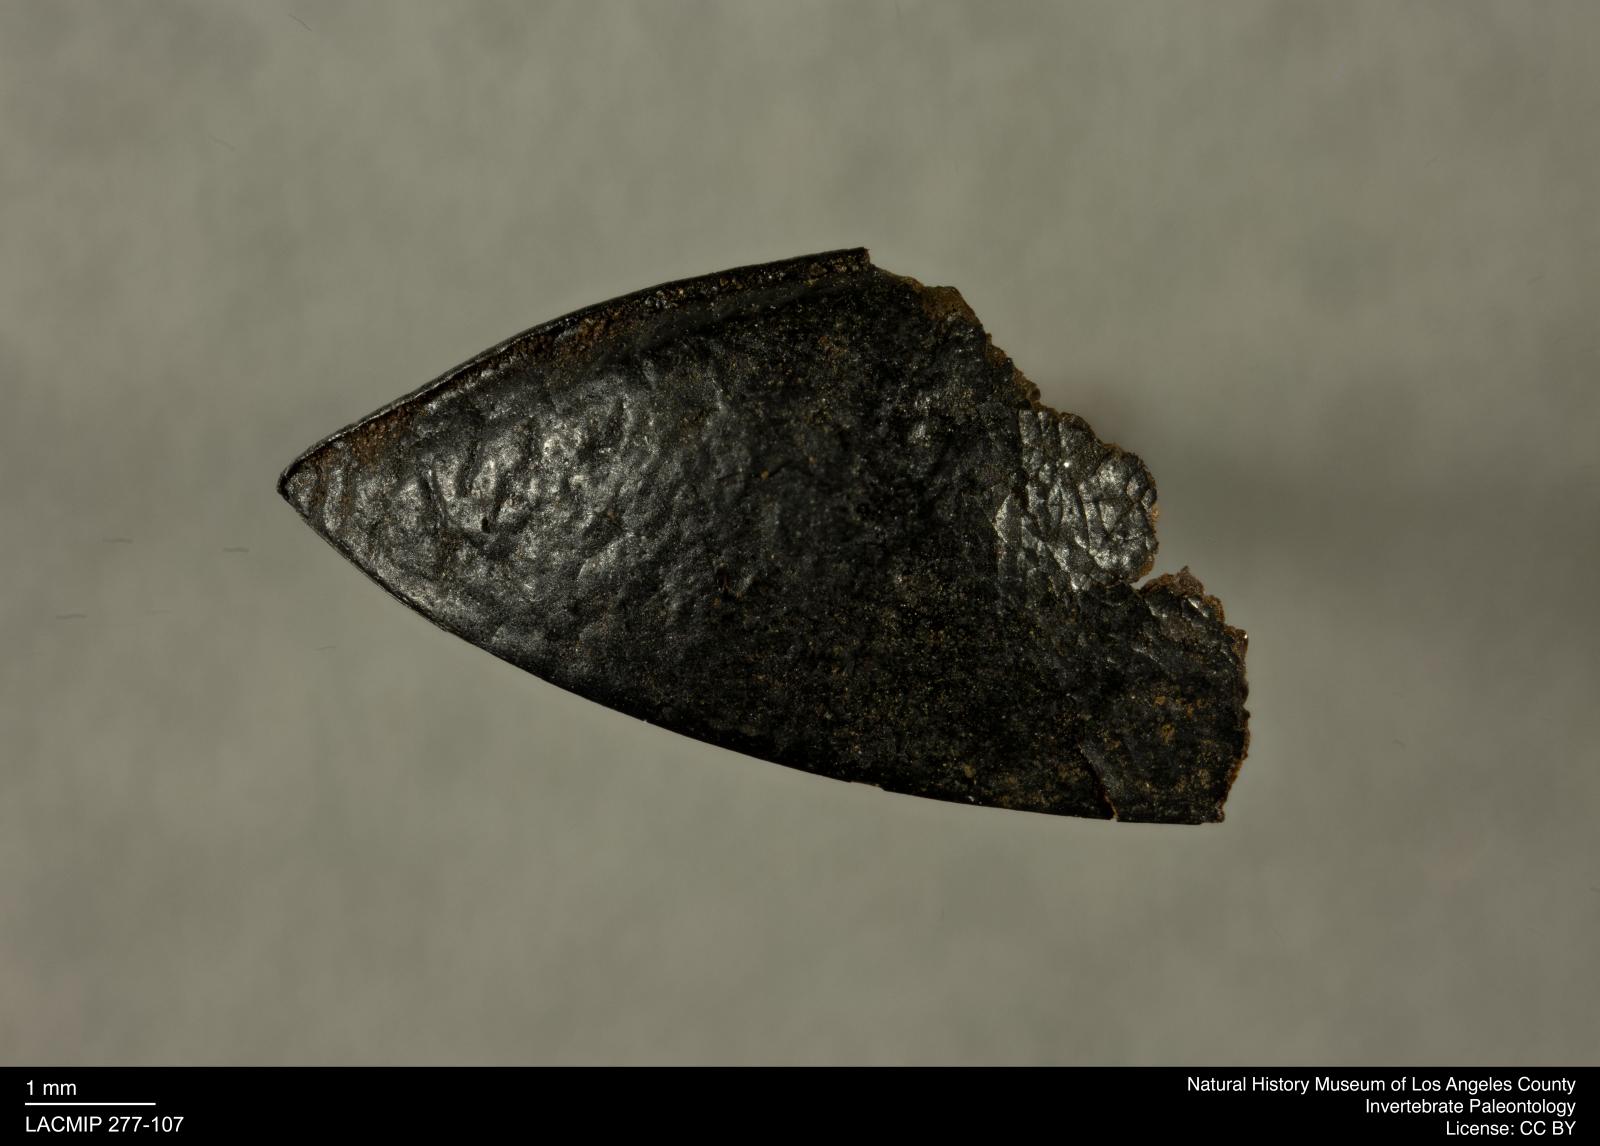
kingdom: Animalia
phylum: Arthropoda
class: Insecta
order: Coleoptera
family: Tenebrionidae
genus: Coniontis
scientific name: Coniontis abdominalis
